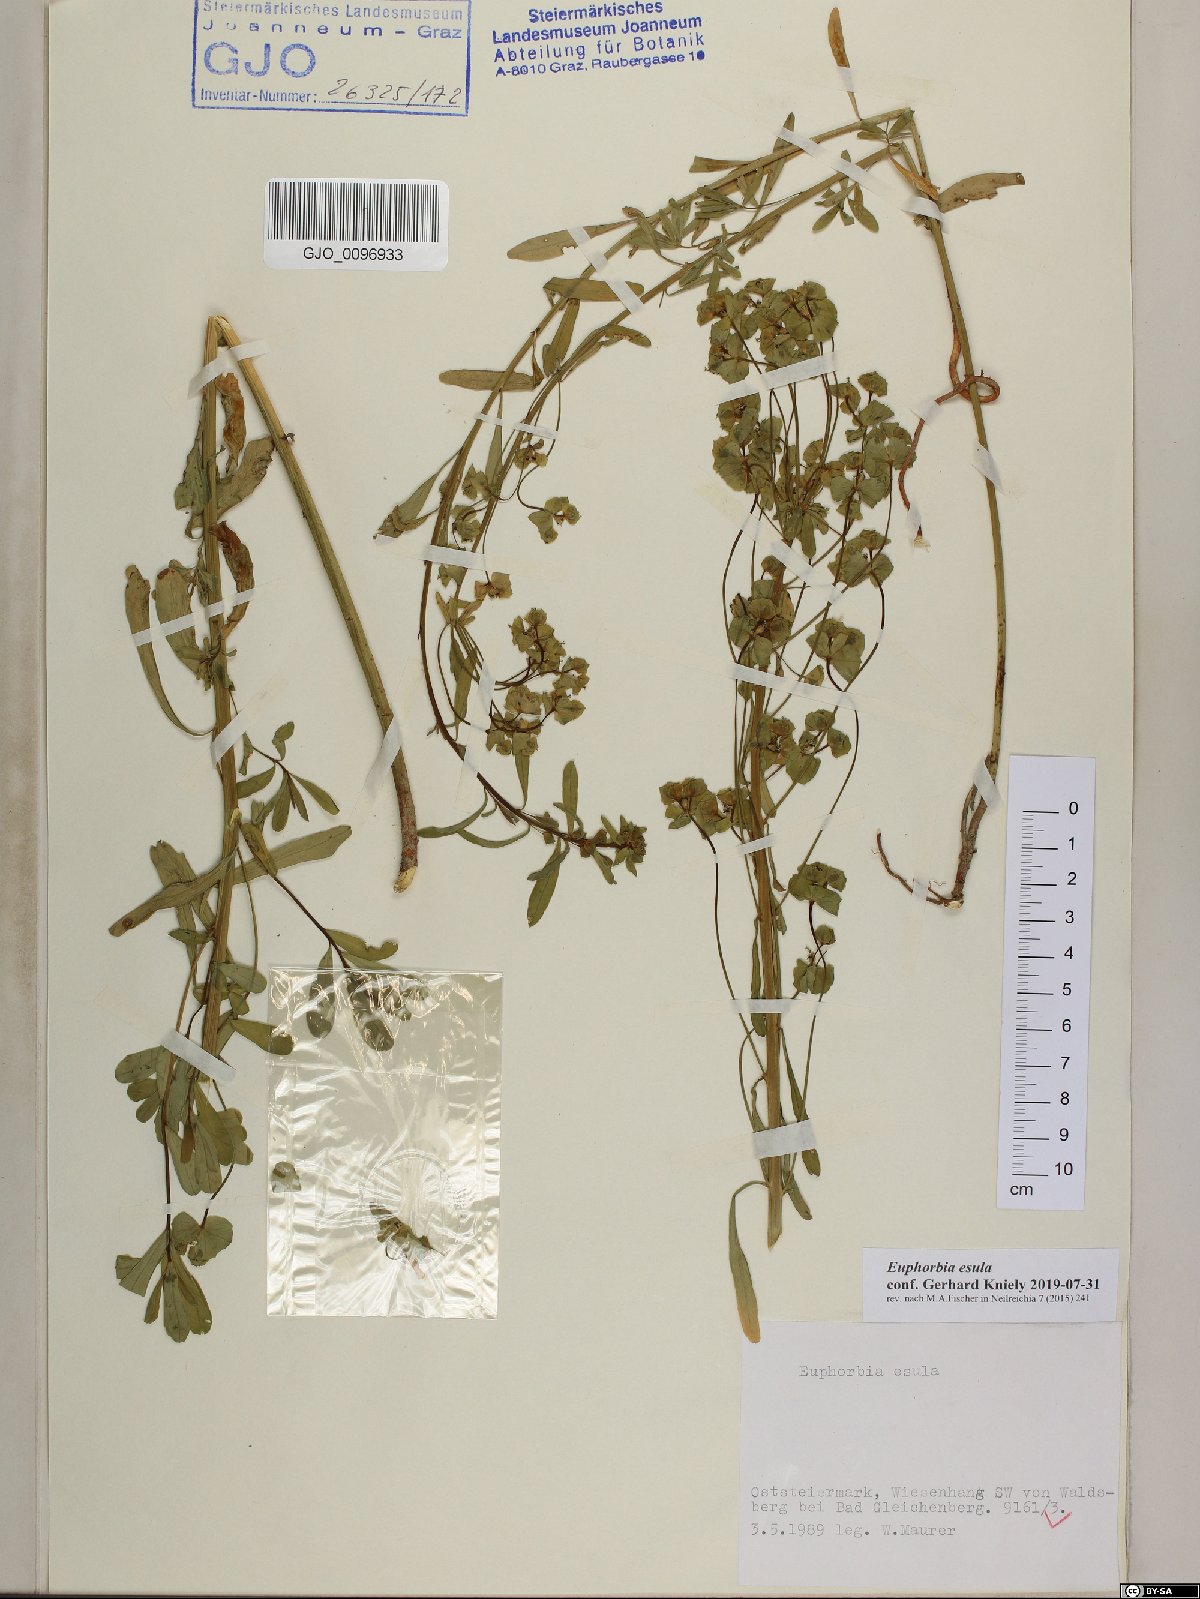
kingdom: Plantae
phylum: Tracheophyta
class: Magnoliopsida
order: Malpighiales
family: Euphorbiaceae
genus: Euphorbia
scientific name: Euphorbia esula
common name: Leafy spurge
